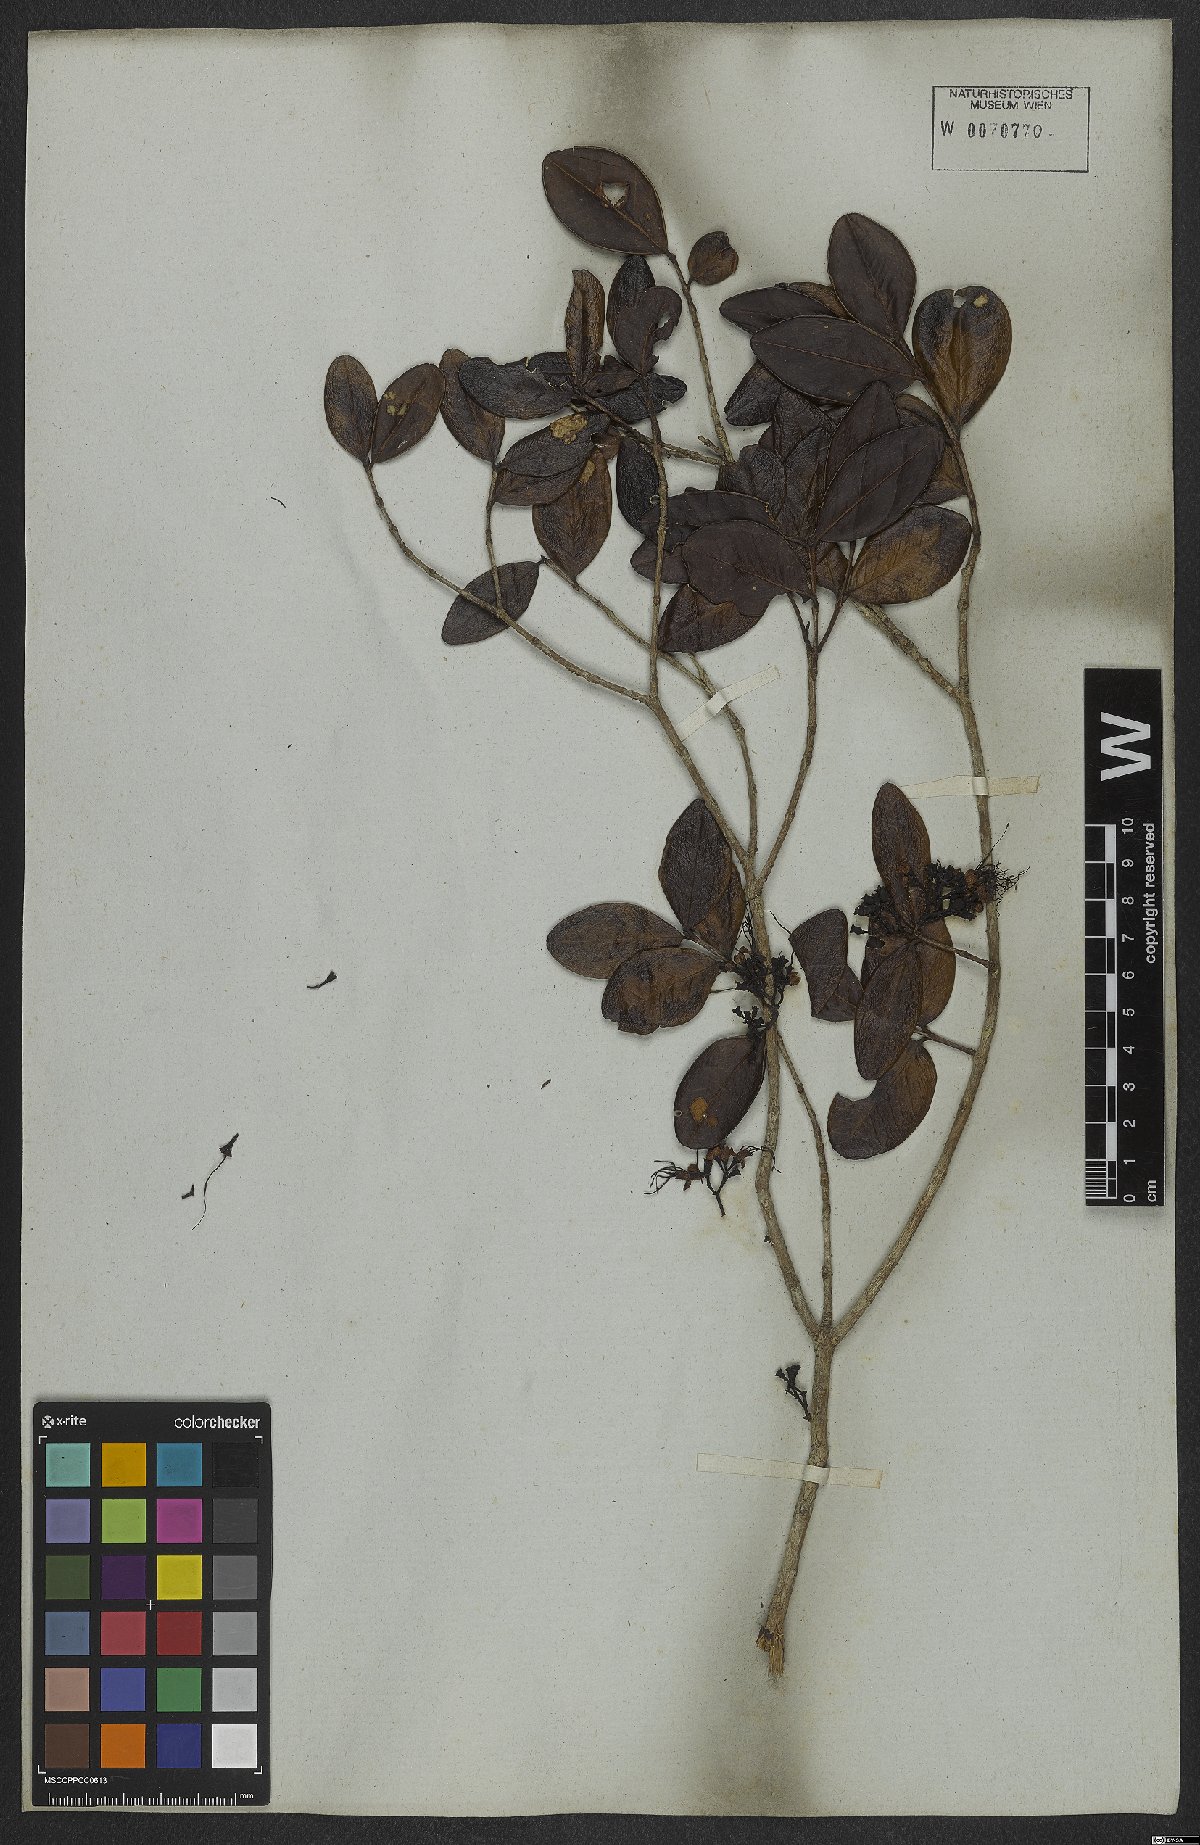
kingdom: Plantae
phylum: Tracheophyta
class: Magnoliopsida
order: Myrtales
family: Myrtaceae
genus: Myrrhinium
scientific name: Myrrhinium atropurpureum
